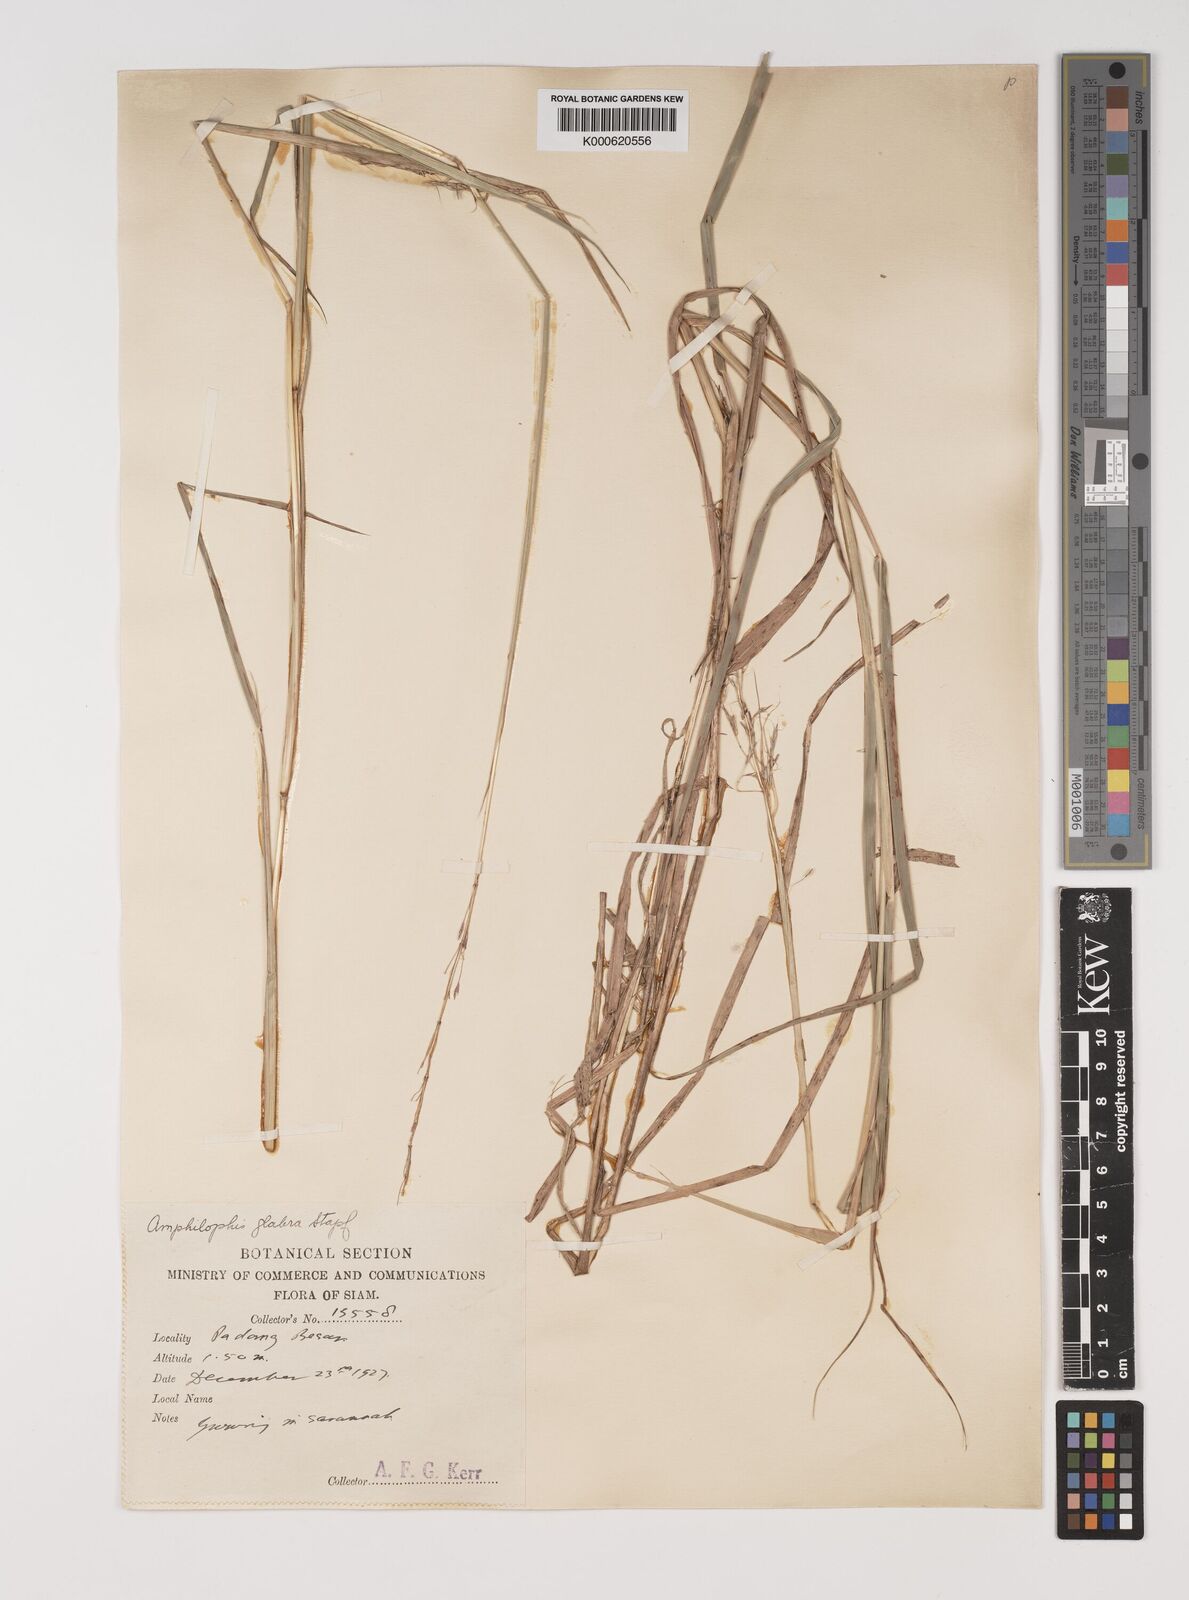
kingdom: Plantae
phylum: Tracheophyta
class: Liliopsida
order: Poales
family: Poaceae
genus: Bothriochloa
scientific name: Bothriochloa bladhii
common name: Caucasian bluestem
